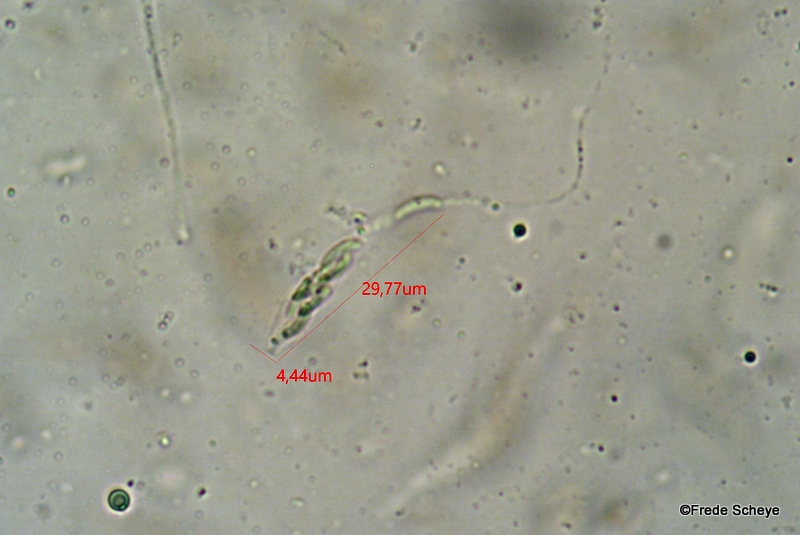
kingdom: Fungi
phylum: Ascomycota
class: Sordariomycetes
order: Xylariales
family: Diatrypaceae
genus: Diatrype
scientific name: Diatrype disciformis
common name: kant-kulskorpe
